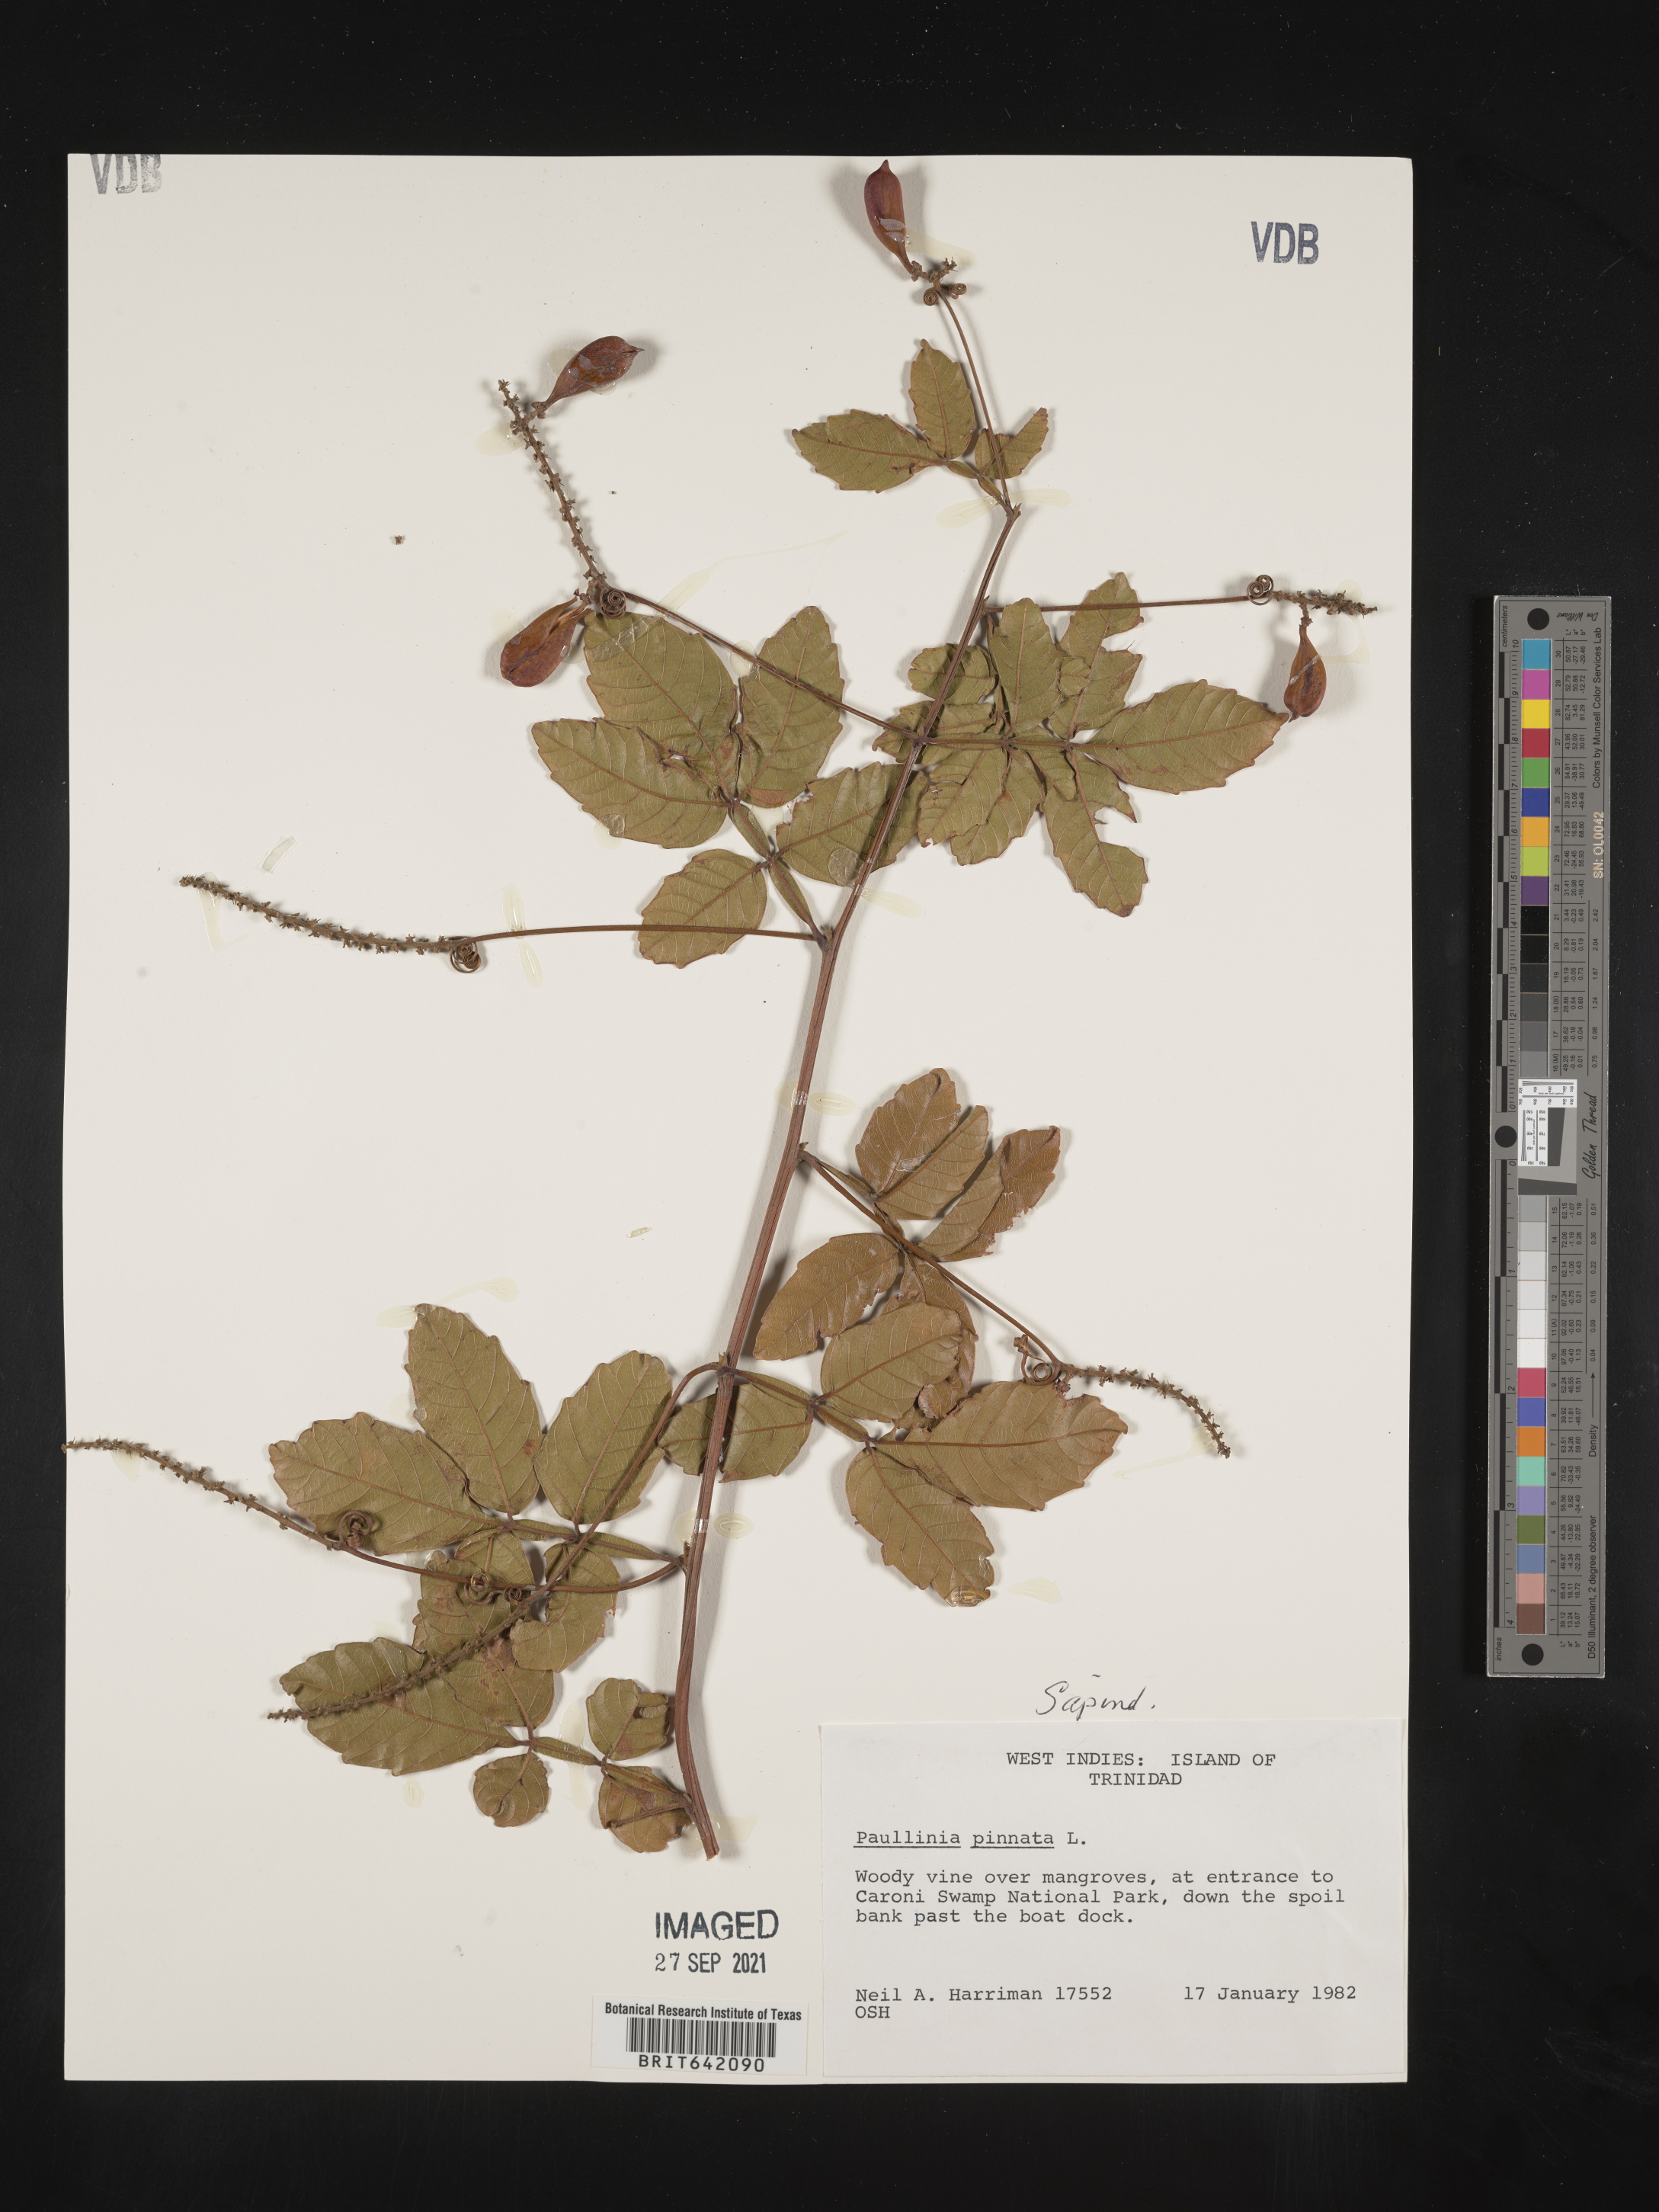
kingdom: Plantae
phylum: Tracheophyta
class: Magnoliopsida
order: Sapindales
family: Sapindaceae
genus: Paullinia
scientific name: Paullinia
